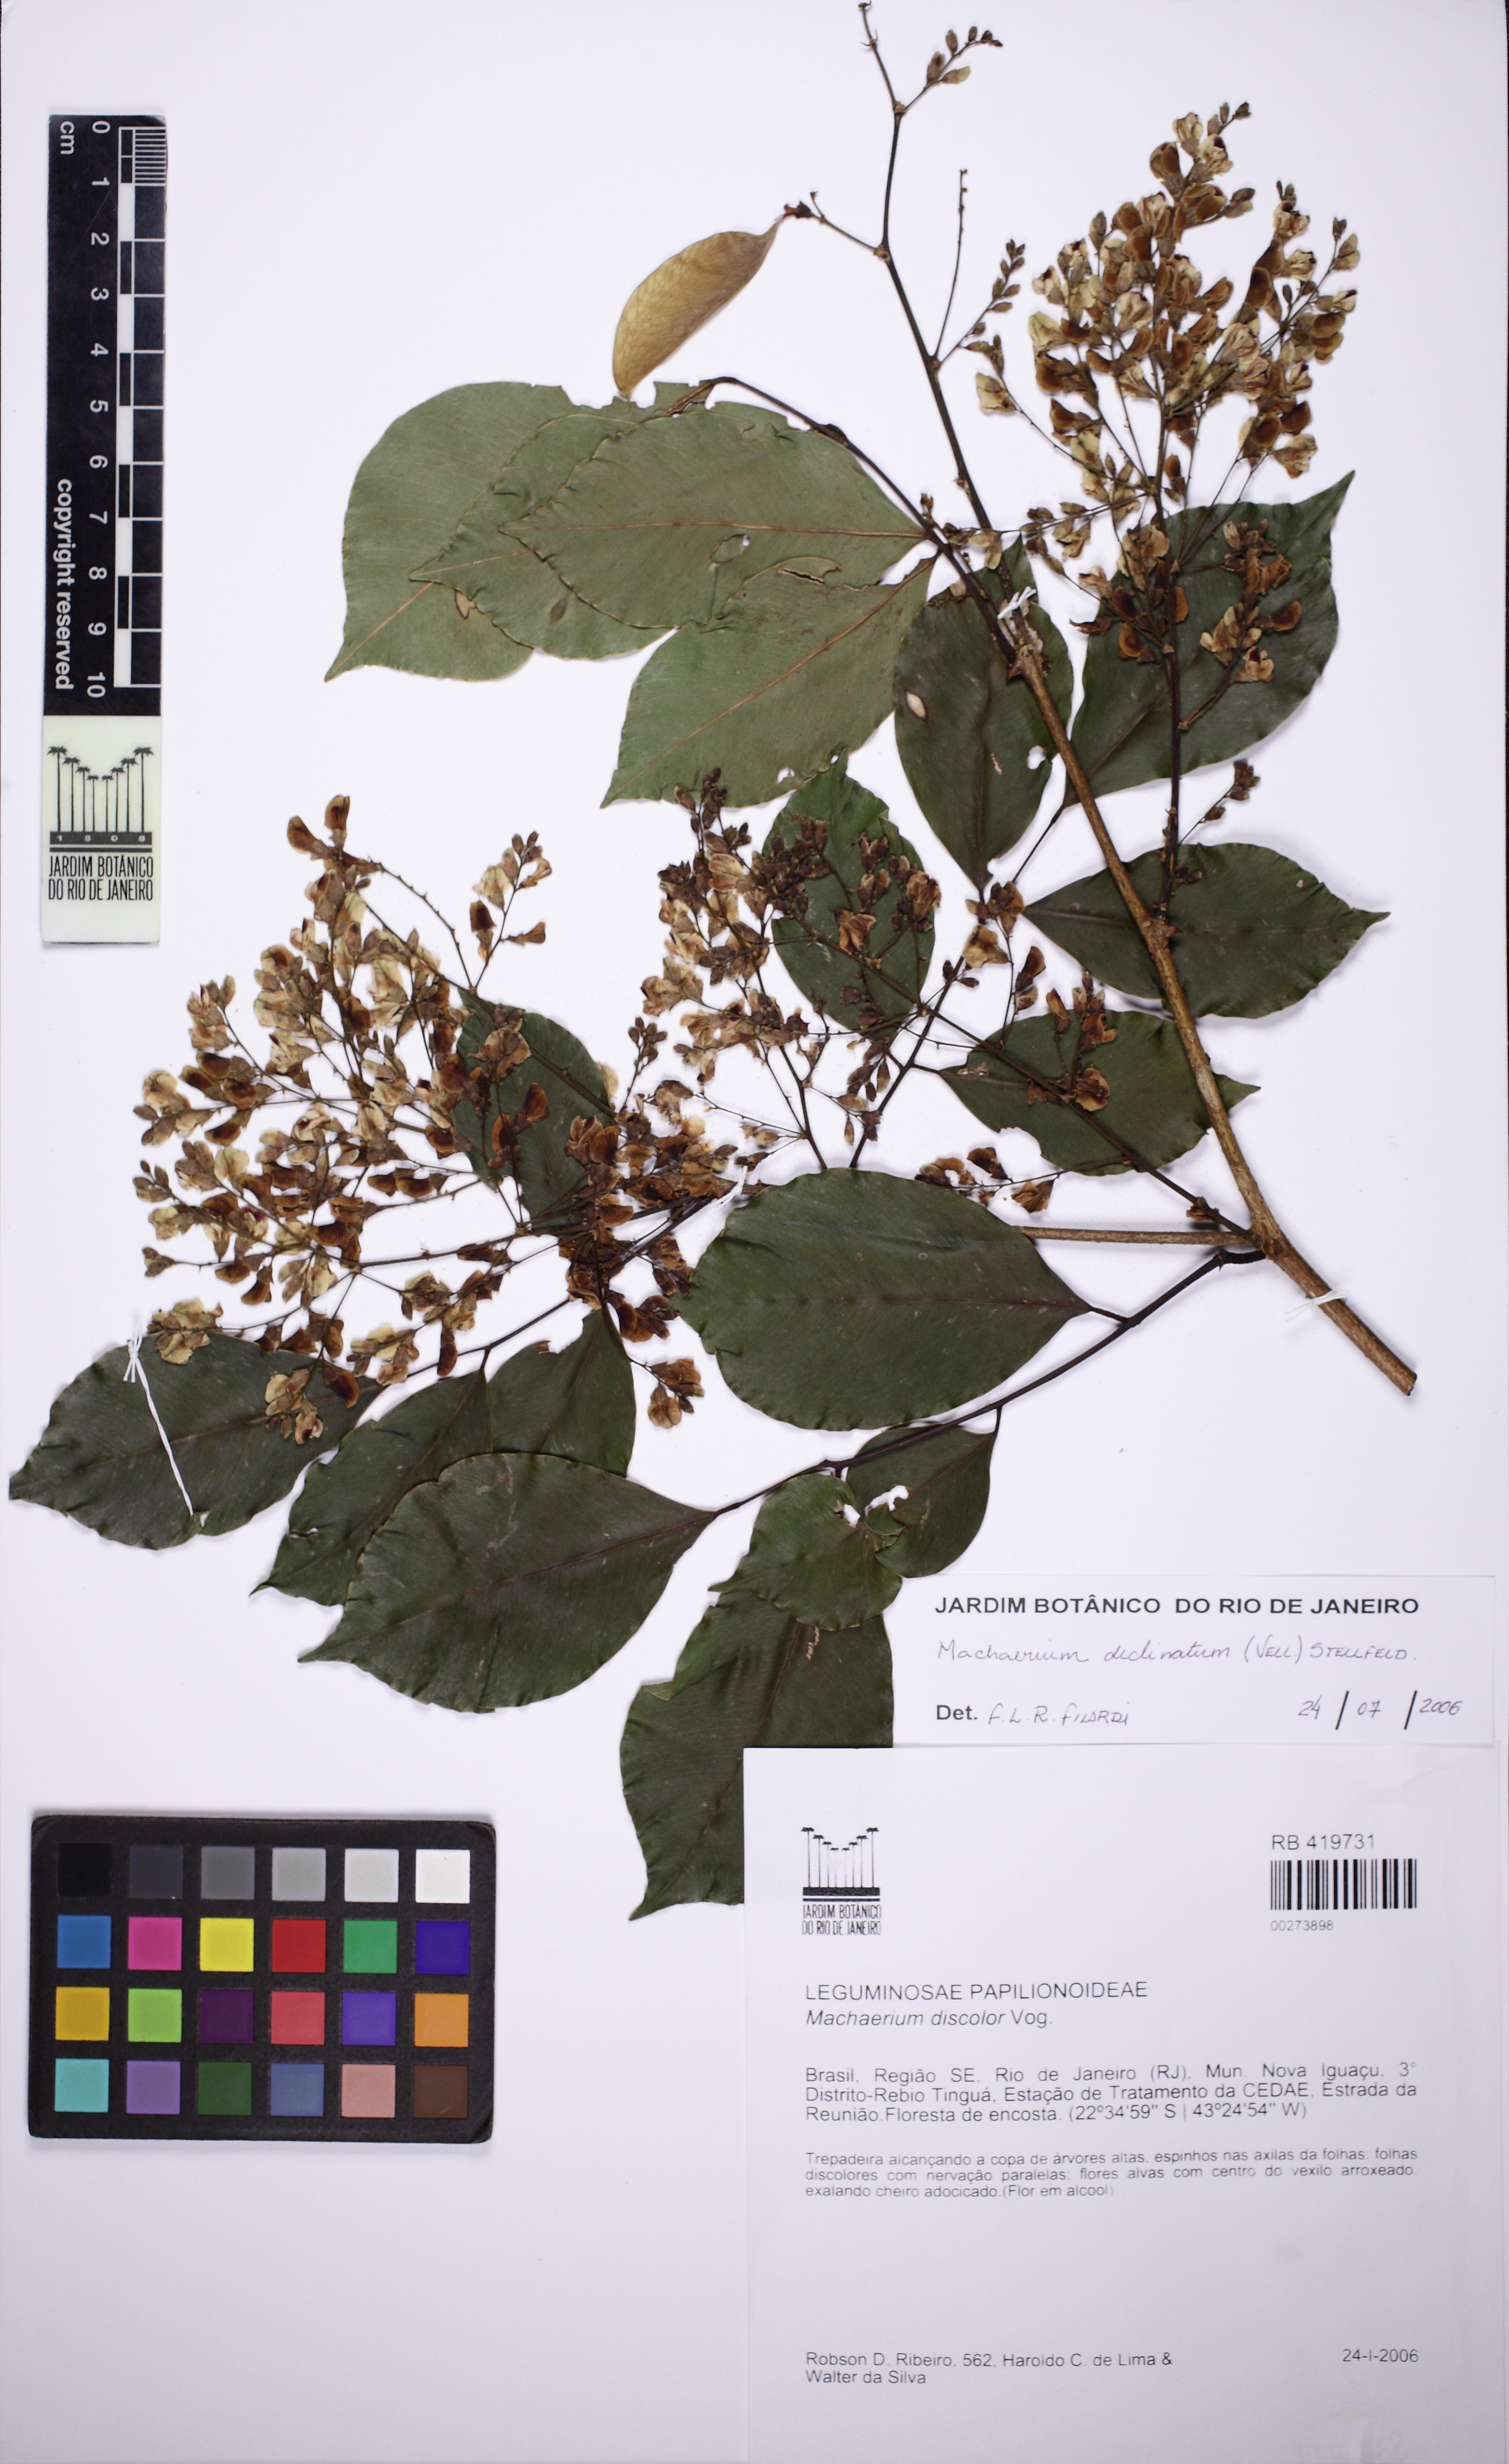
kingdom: Plantae
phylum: Tracheophyta
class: Magnoliopsida
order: Fabales
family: Fabaceae
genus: Machaerium
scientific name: Machaerium declinatum
